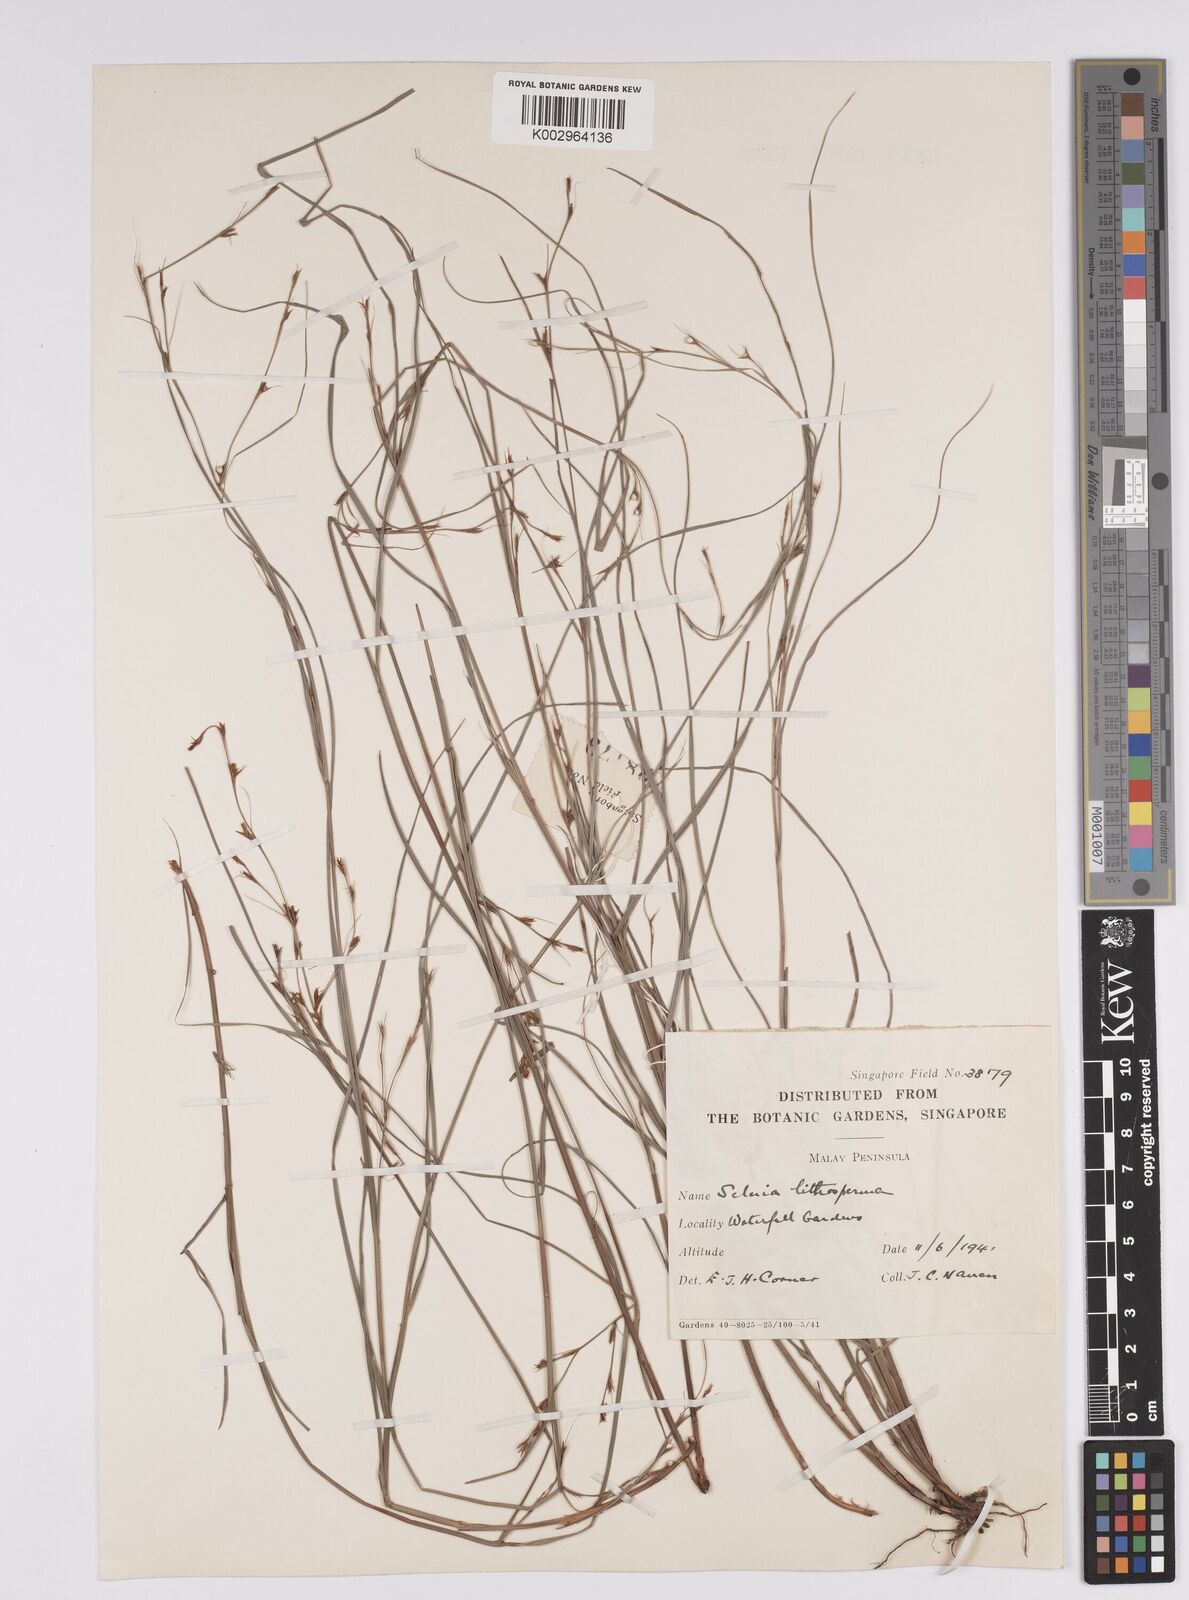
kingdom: Plantae
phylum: Tracheophyta
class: Liliopsida
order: Poales
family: Cyperaceae
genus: Scleria
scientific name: Scleria lithosperma
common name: Florida keys nut-rush
